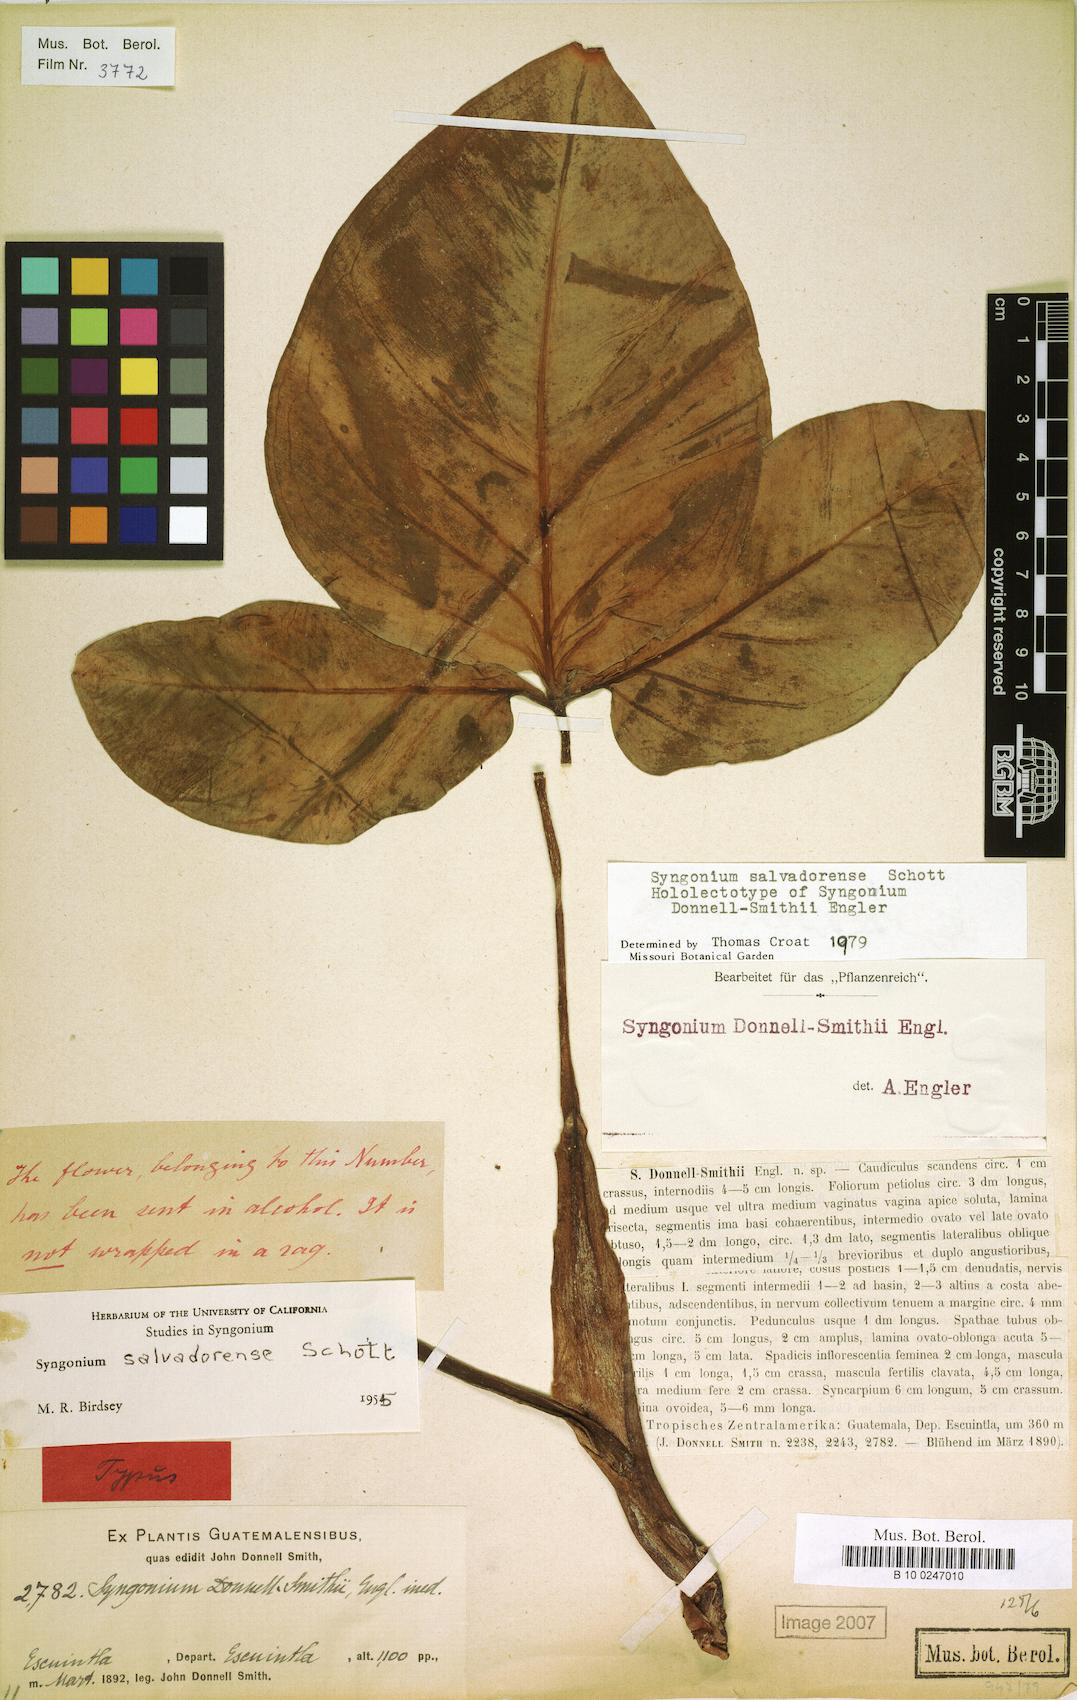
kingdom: Plantae
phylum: Tracheophyta
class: Liliopsida
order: Alismatales
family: Araceae
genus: Syngonium
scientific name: Syngonium salvadorense
